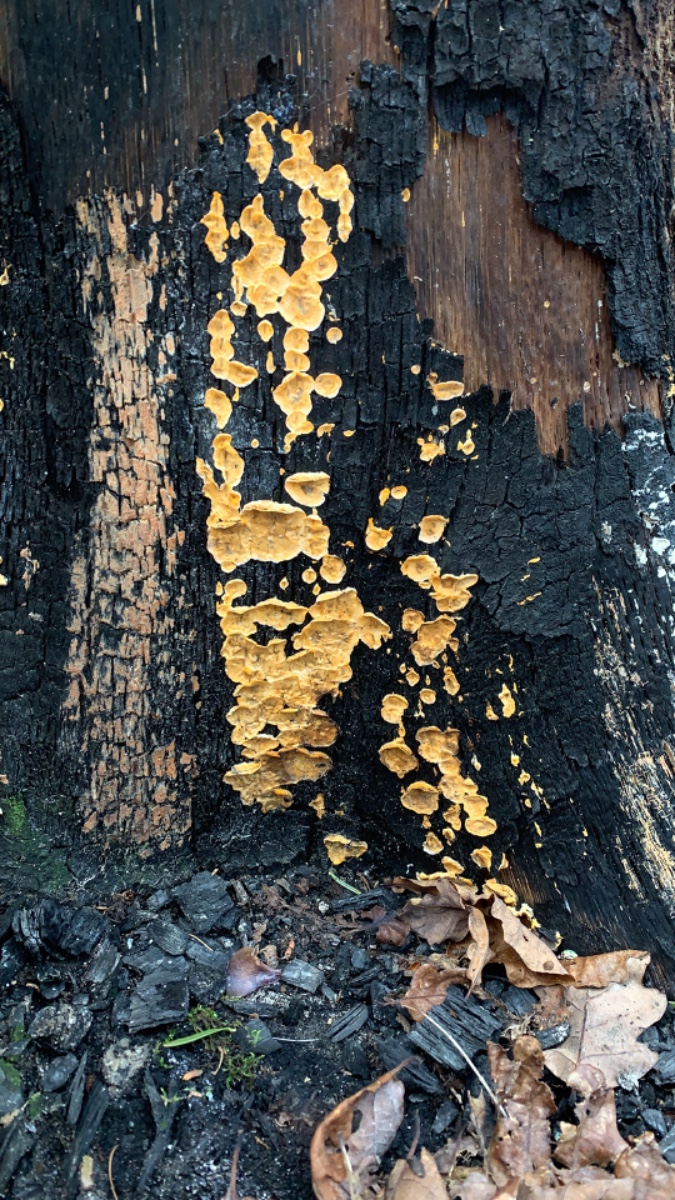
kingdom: Fungi
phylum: Basidiomycota
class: Agaricomycetes
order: Russulales
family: Stereaceae
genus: Stereum
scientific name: Stereum hirsutum
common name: håret lædersvamp
